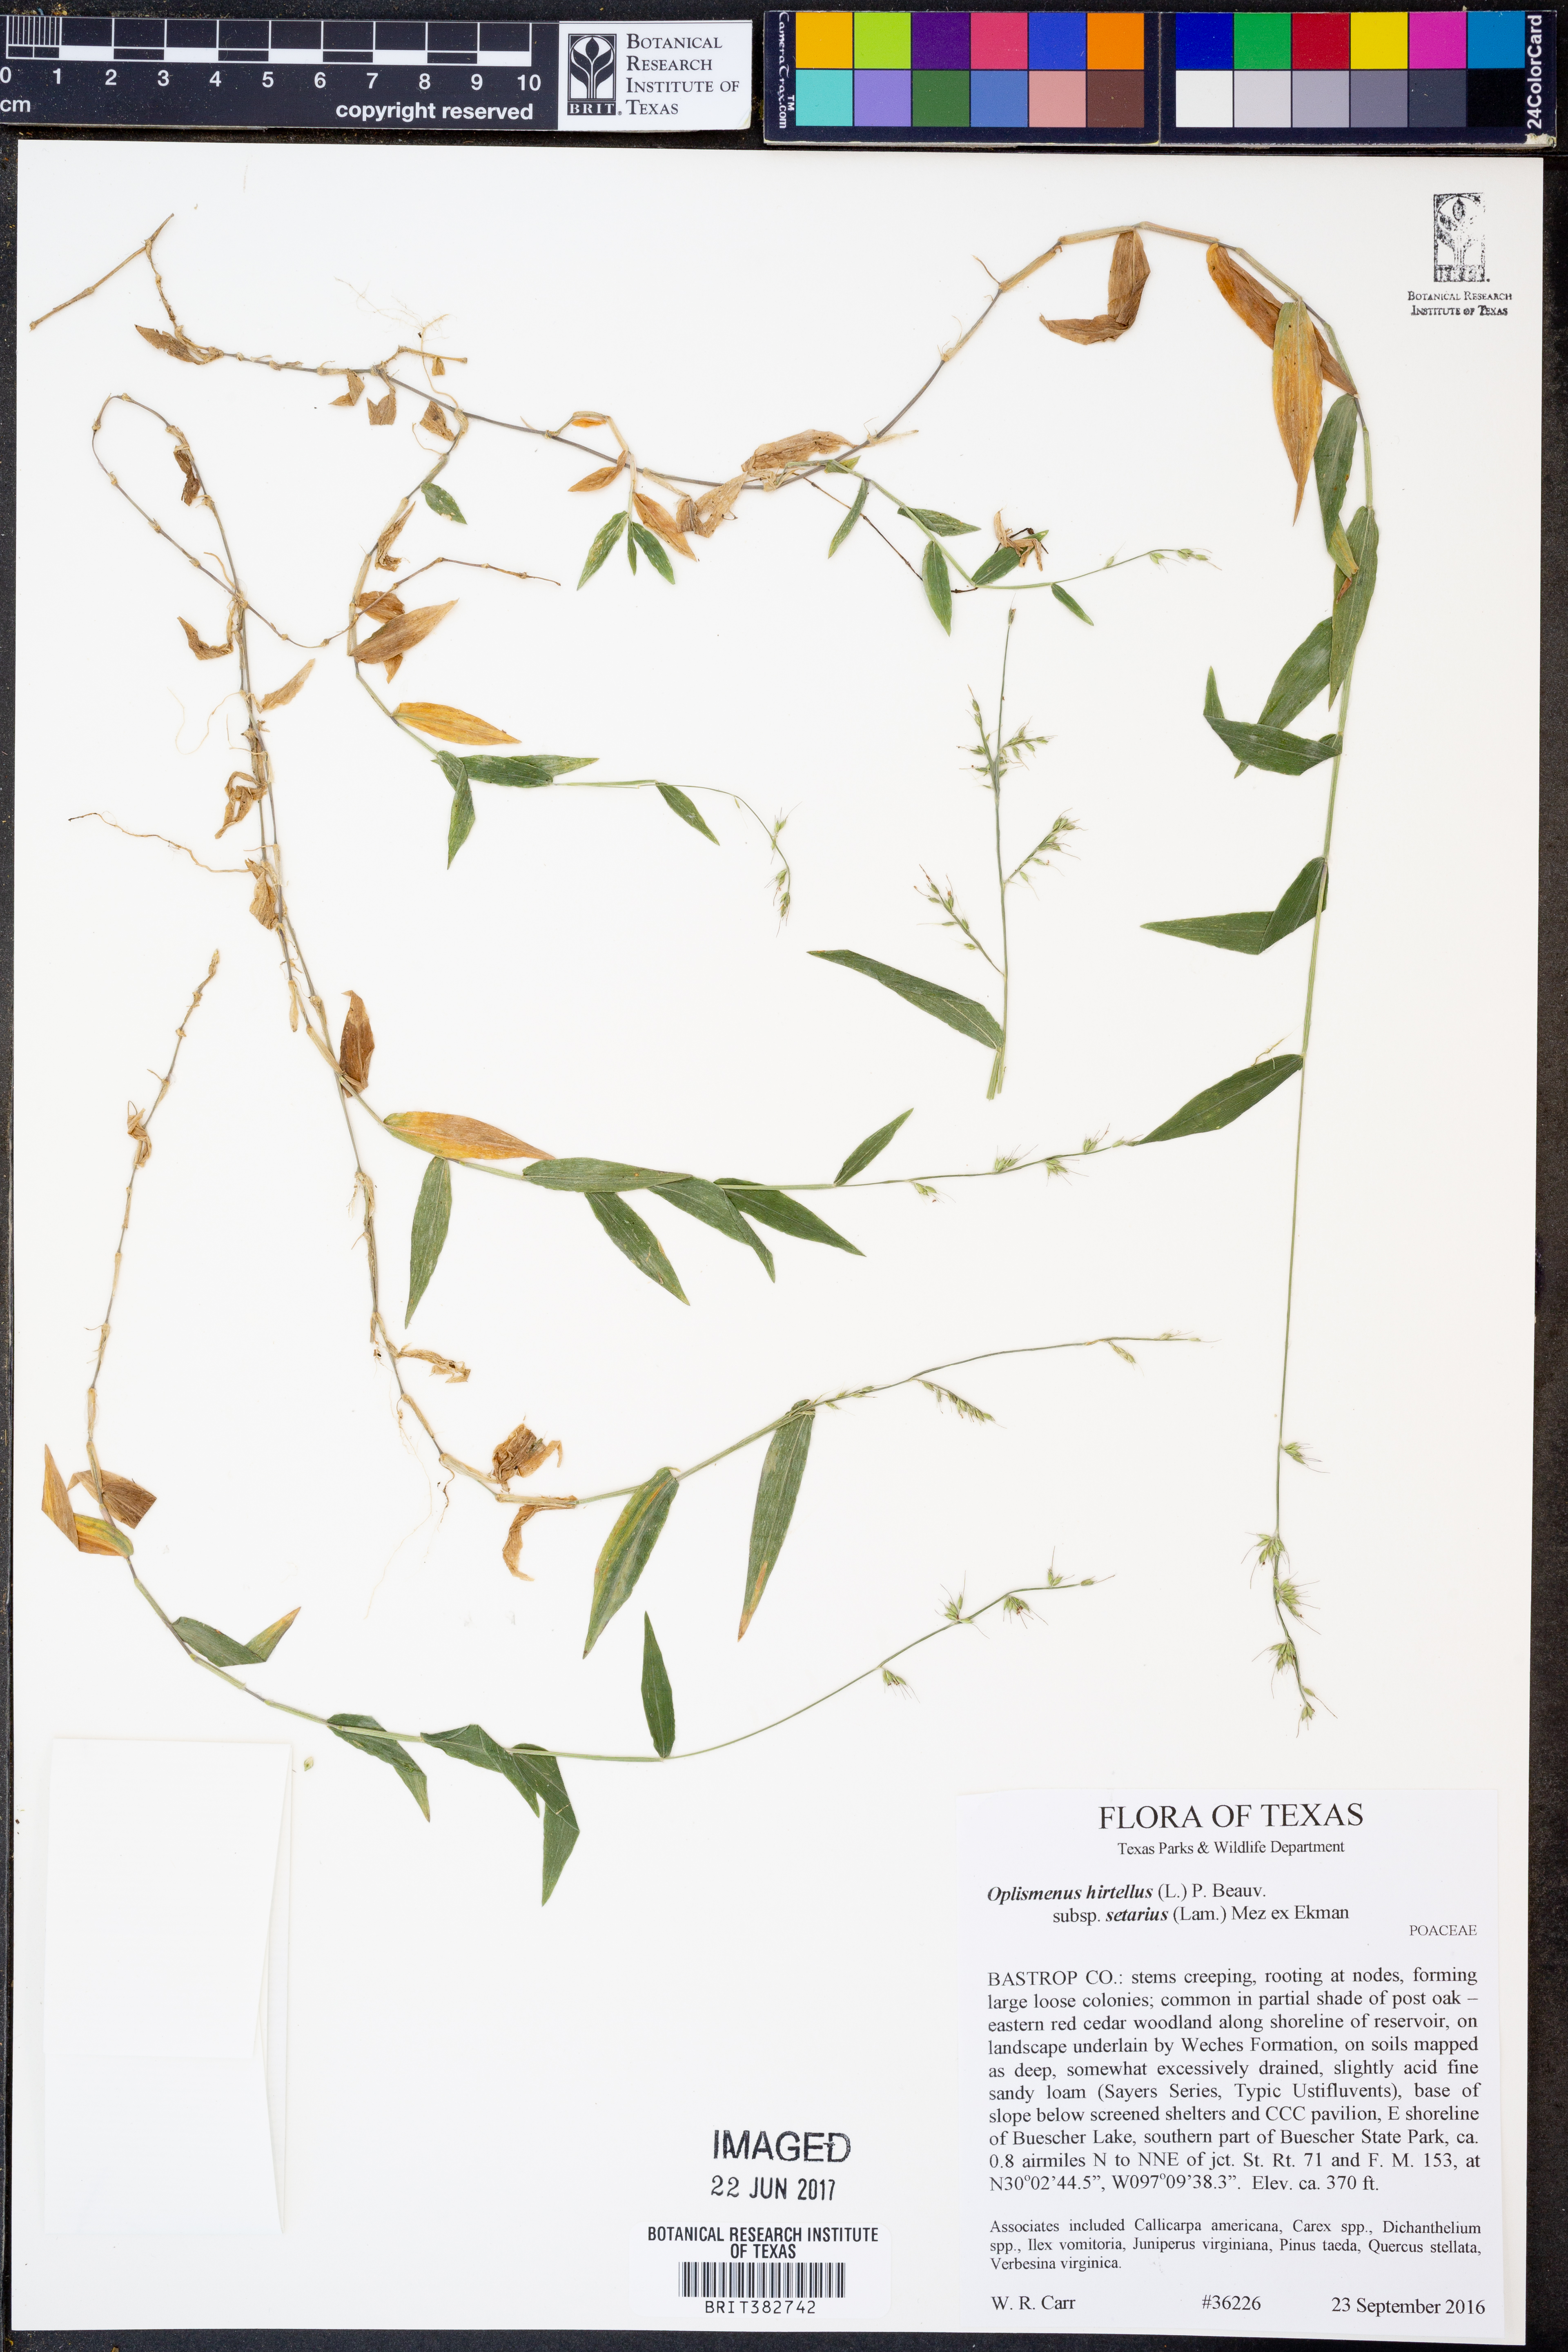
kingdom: Plantae
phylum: Tracheophyta
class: Liliopsida
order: Poales
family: Poaceae
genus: Oplismenus
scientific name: Oplismenus compositus
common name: Running mountain grass
